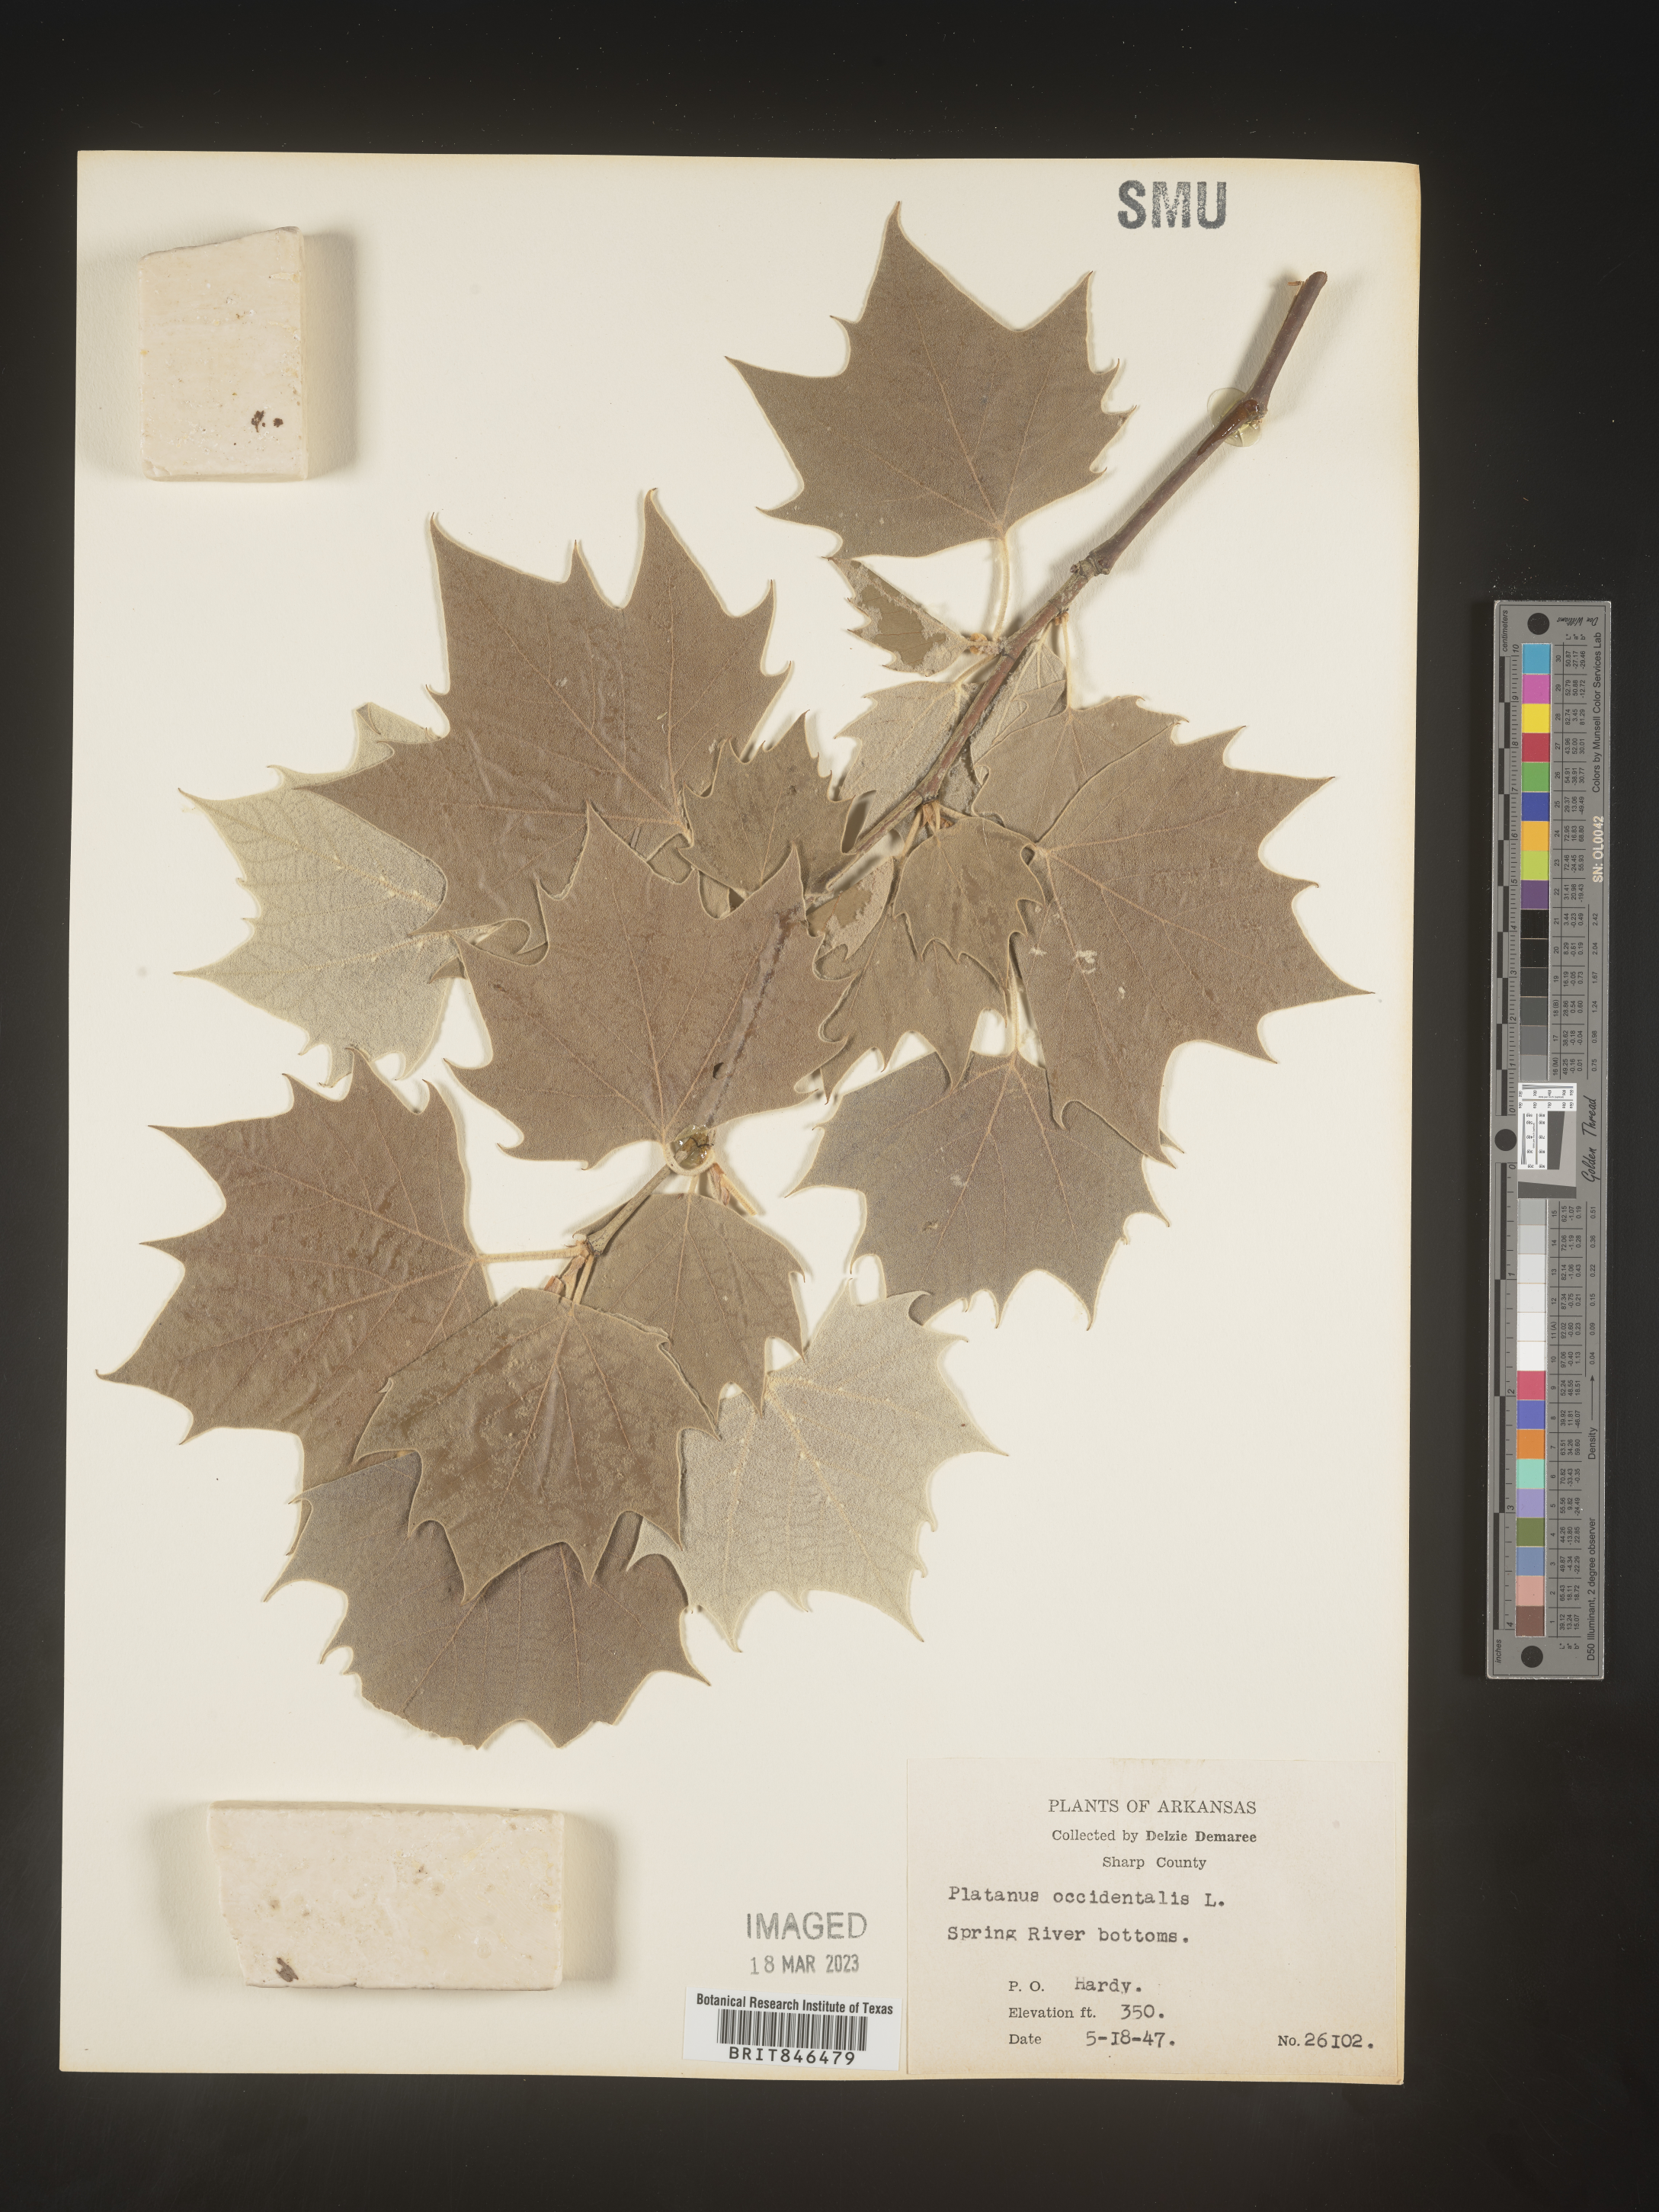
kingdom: Plantae
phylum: Tracheophyta
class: Magnoliopsida
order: Proteales
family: Platanaceae
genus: Platanus
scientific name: Platanus occidentalis
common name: American sycamore
